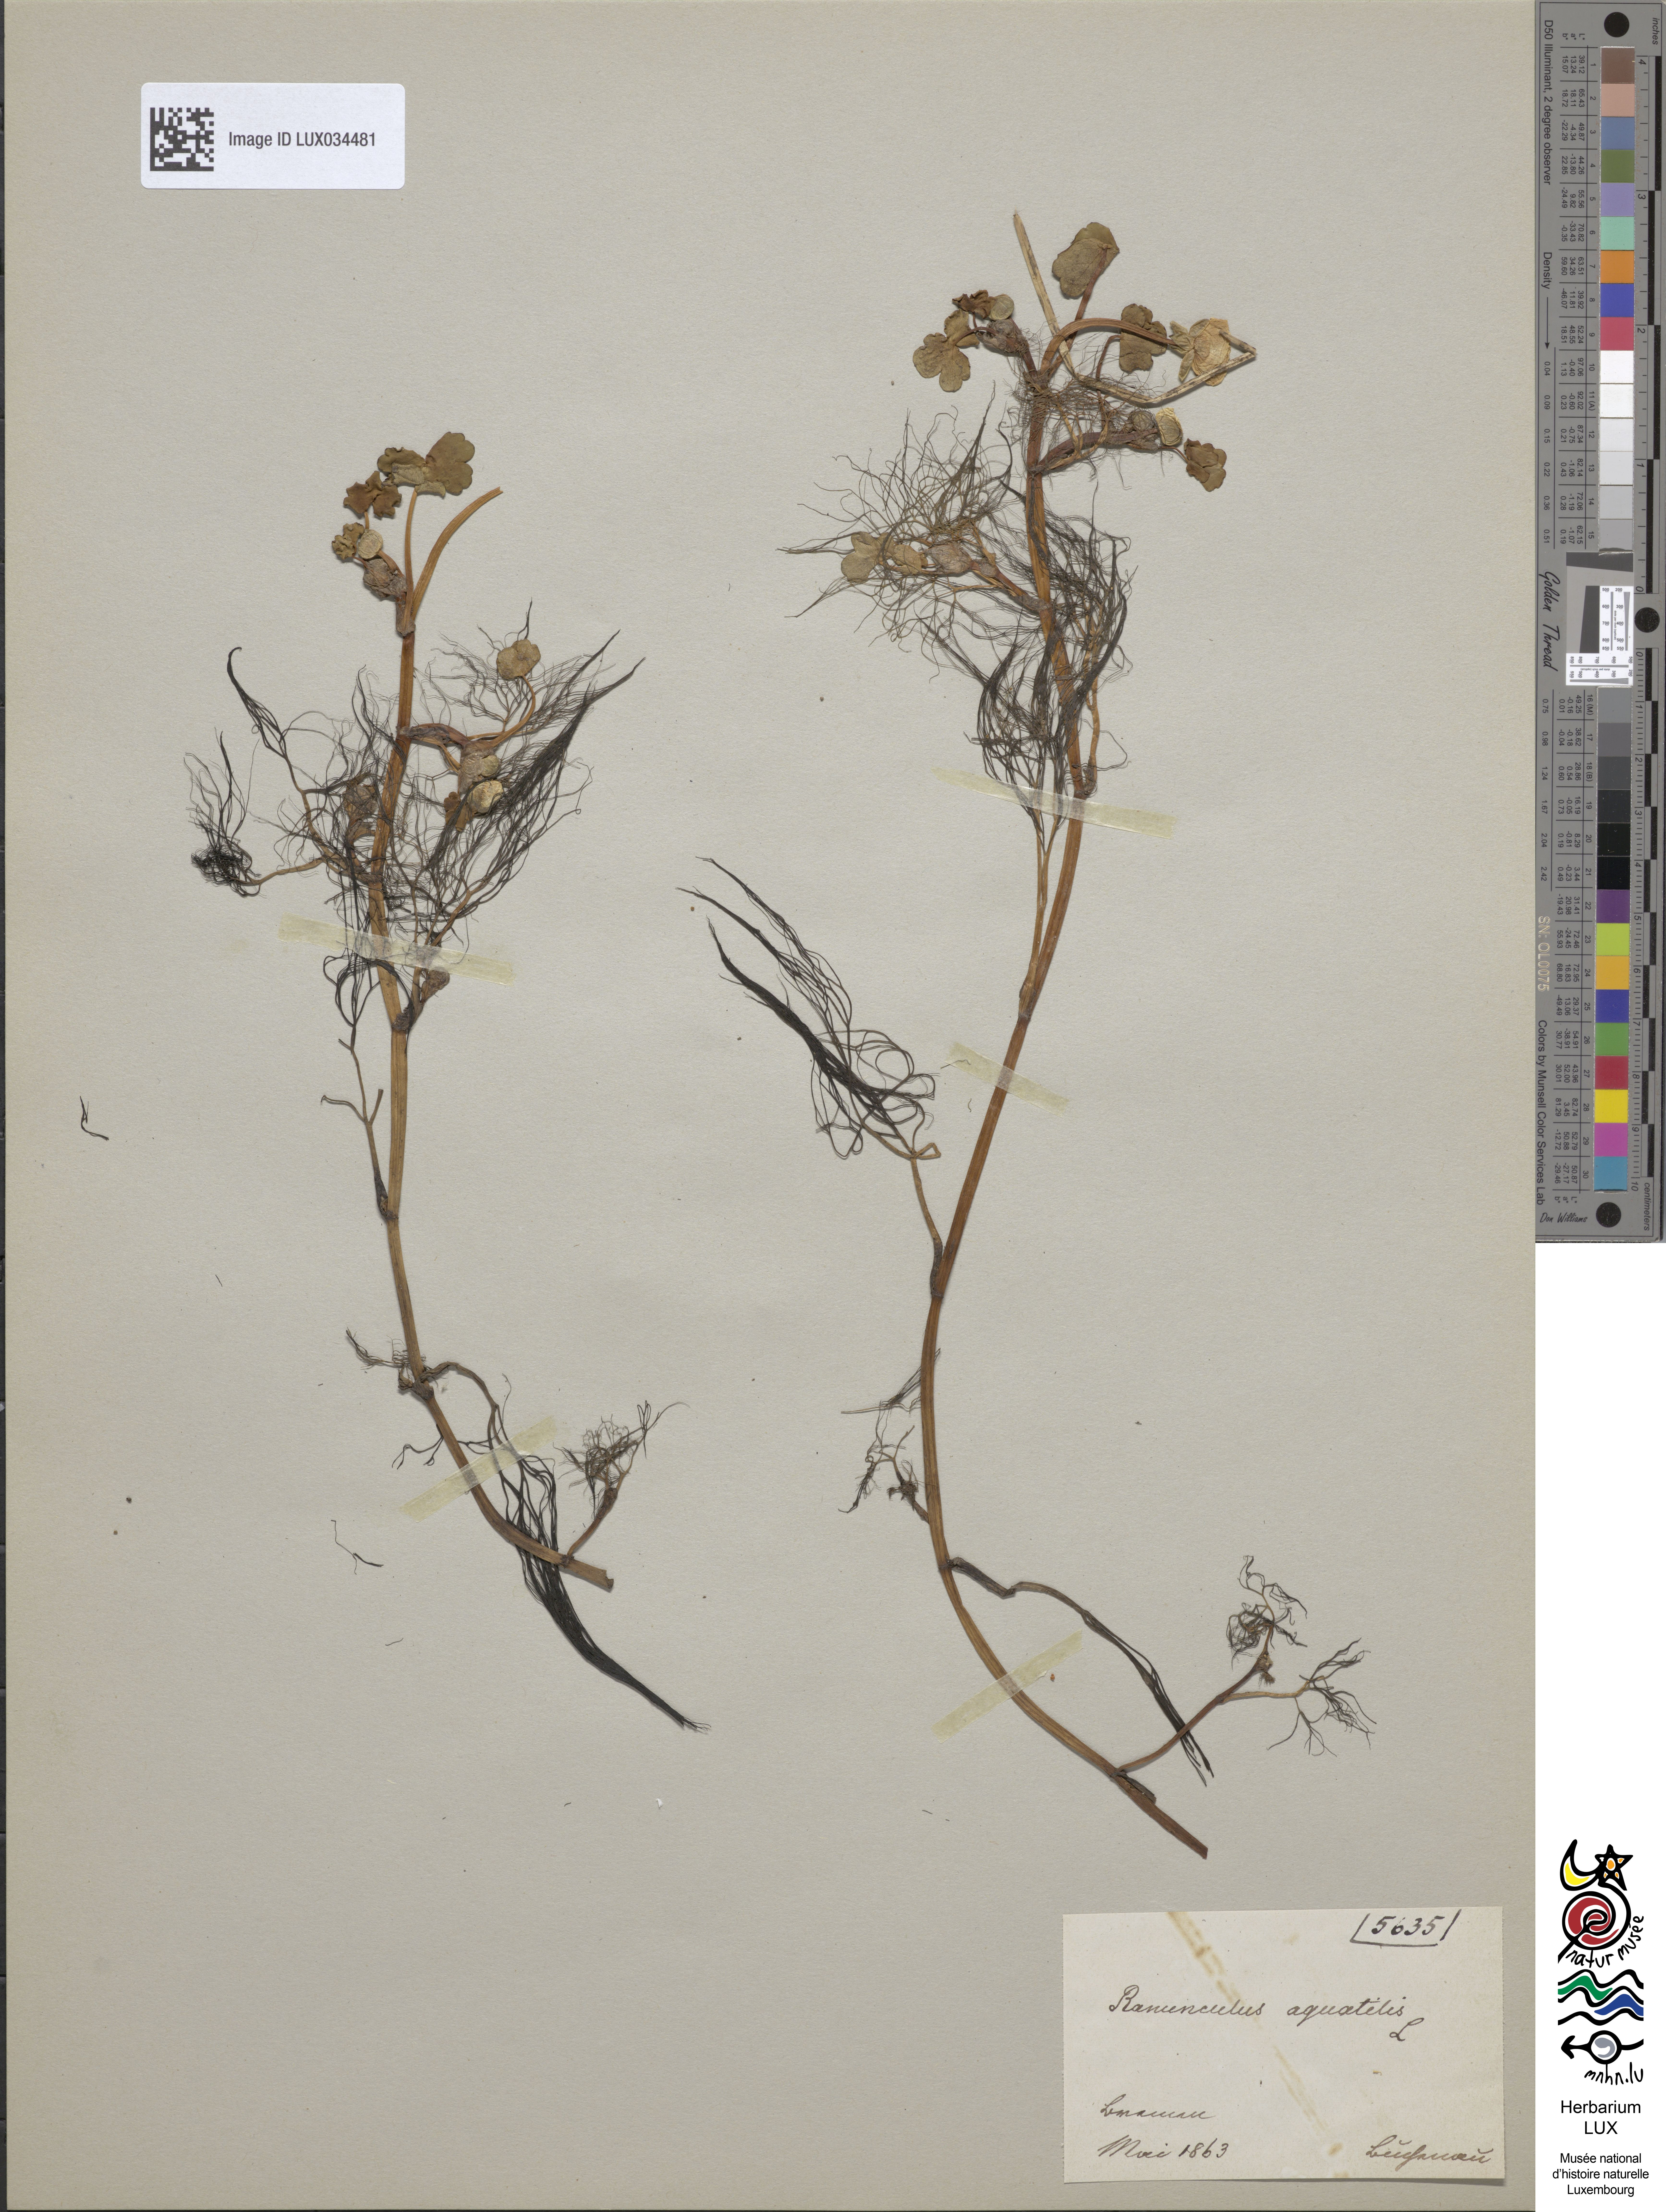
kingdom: Plantae
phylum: Tracheophyta
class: Magnoliopsida
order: Ranunculales
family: Ranunculaceae
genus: Ranunculus
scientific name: Ranunculus aquatilis
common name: Common water-crowfoot
